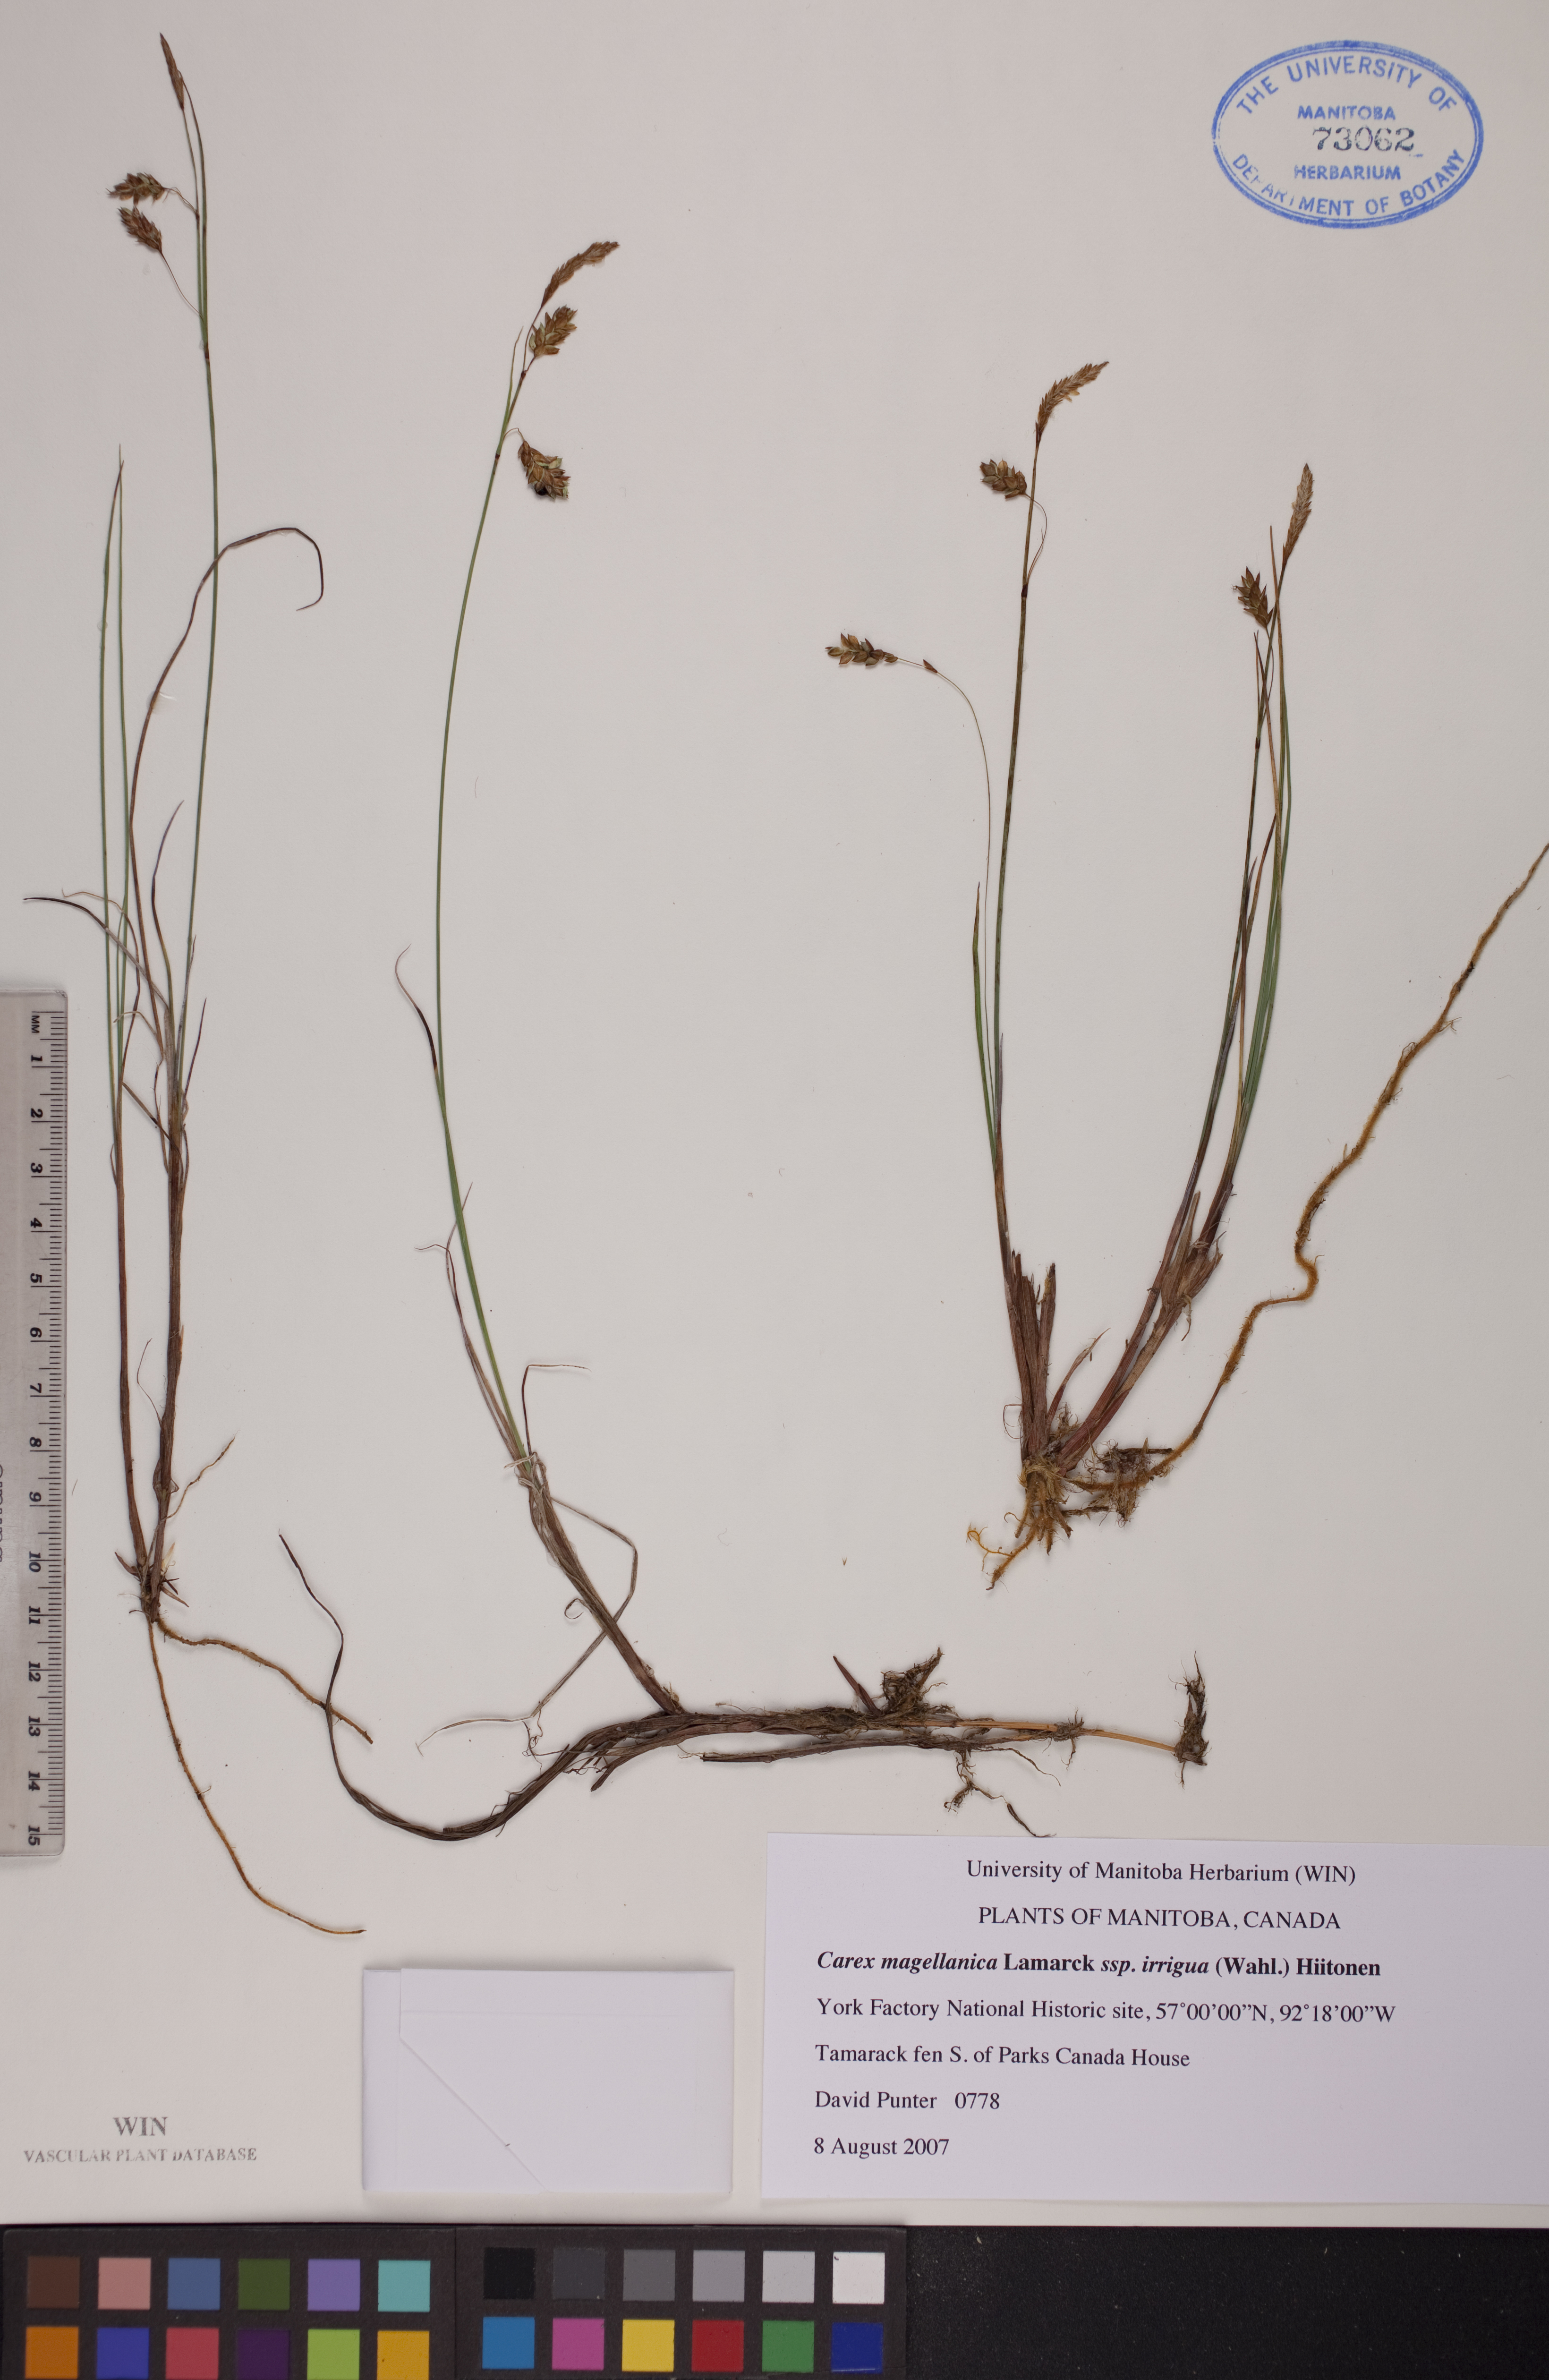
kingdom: Plantae
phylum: Tracheophyta
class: Liliopsida
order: Poales
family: Cyperaceae
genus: Carex
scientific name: Carex magellanica
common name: Bog sedge
